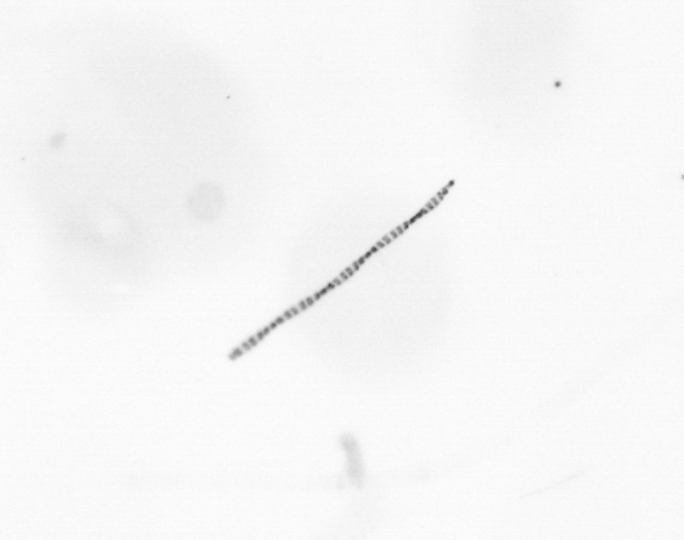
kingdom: Chromista
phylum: Ochrophyta
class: Bacillariophyceae
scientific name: Bacillariophyceae
